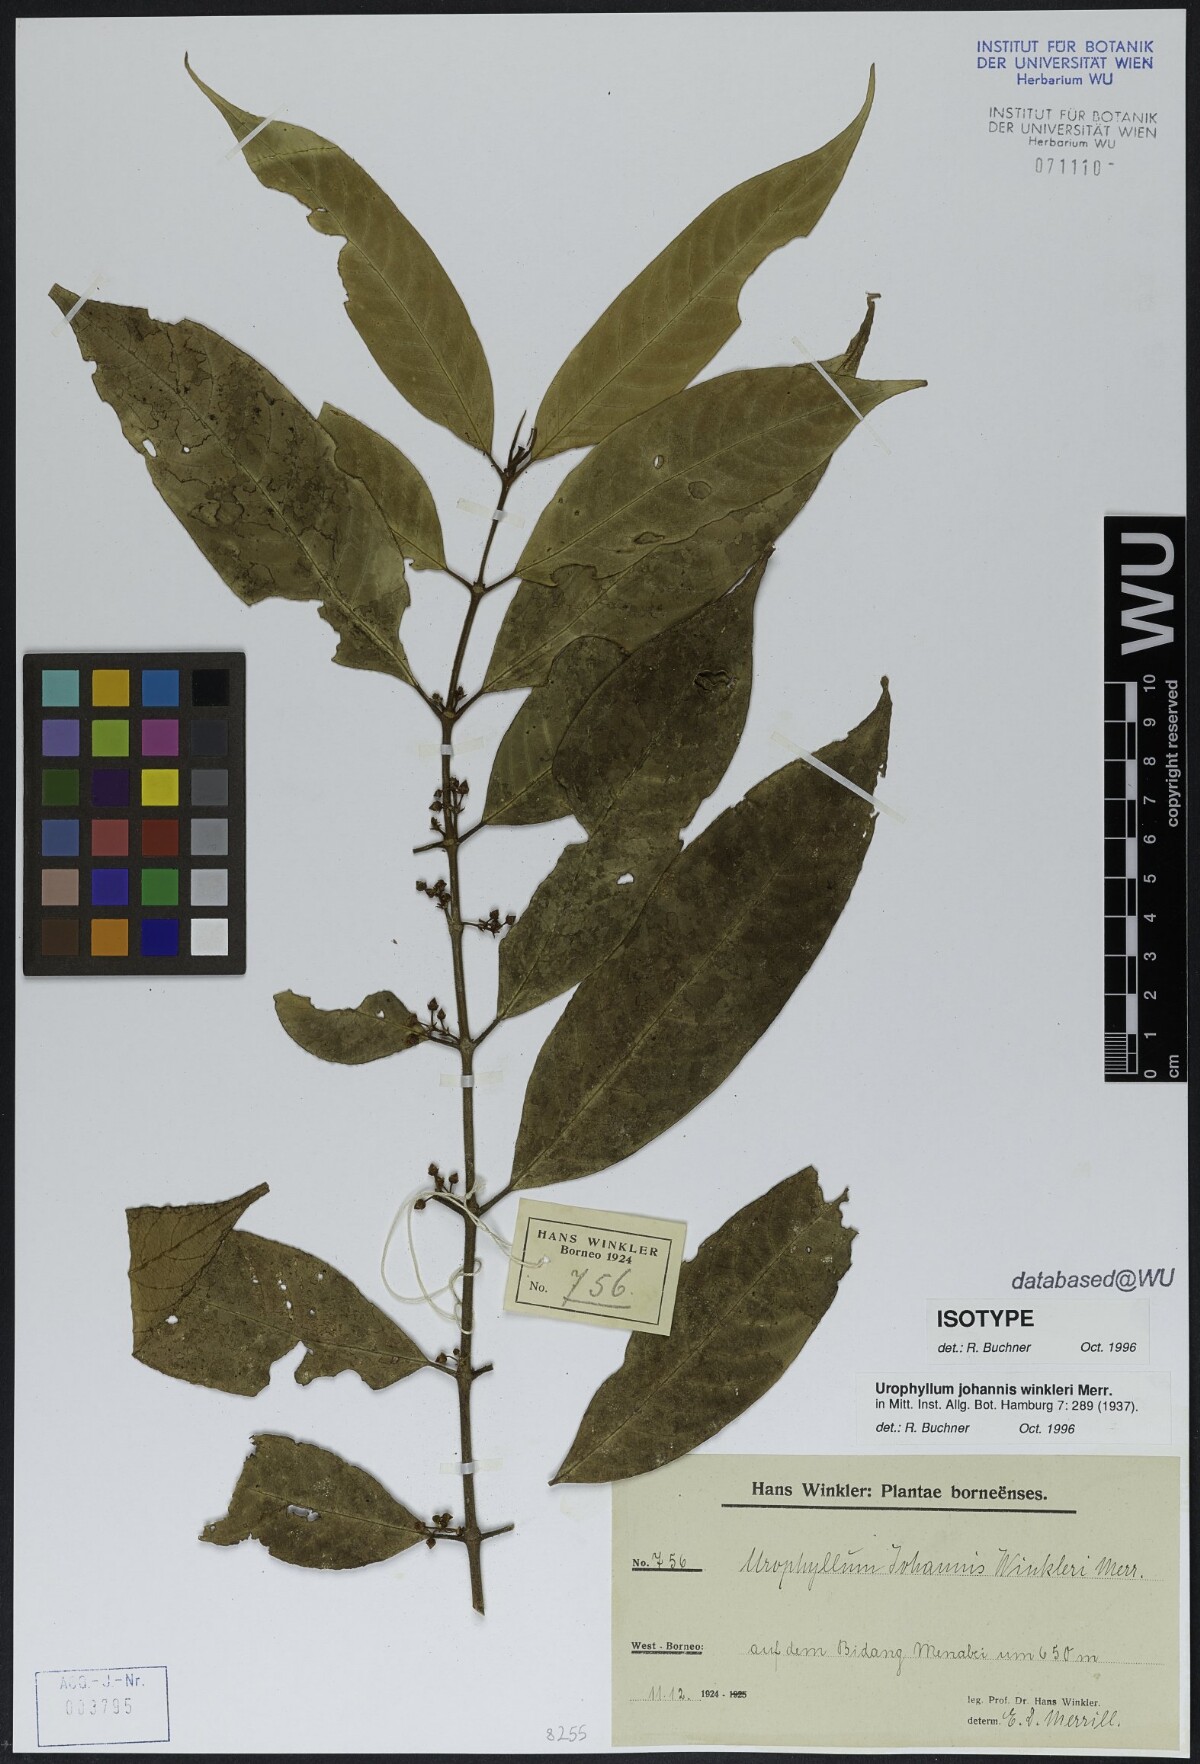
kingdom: Plantae
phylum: Tracheophyta
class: Magnoliopsida
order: Gentianales
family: Rubiaceae
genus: Urophyllum
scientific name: Urophyllum johannis-winkleri
